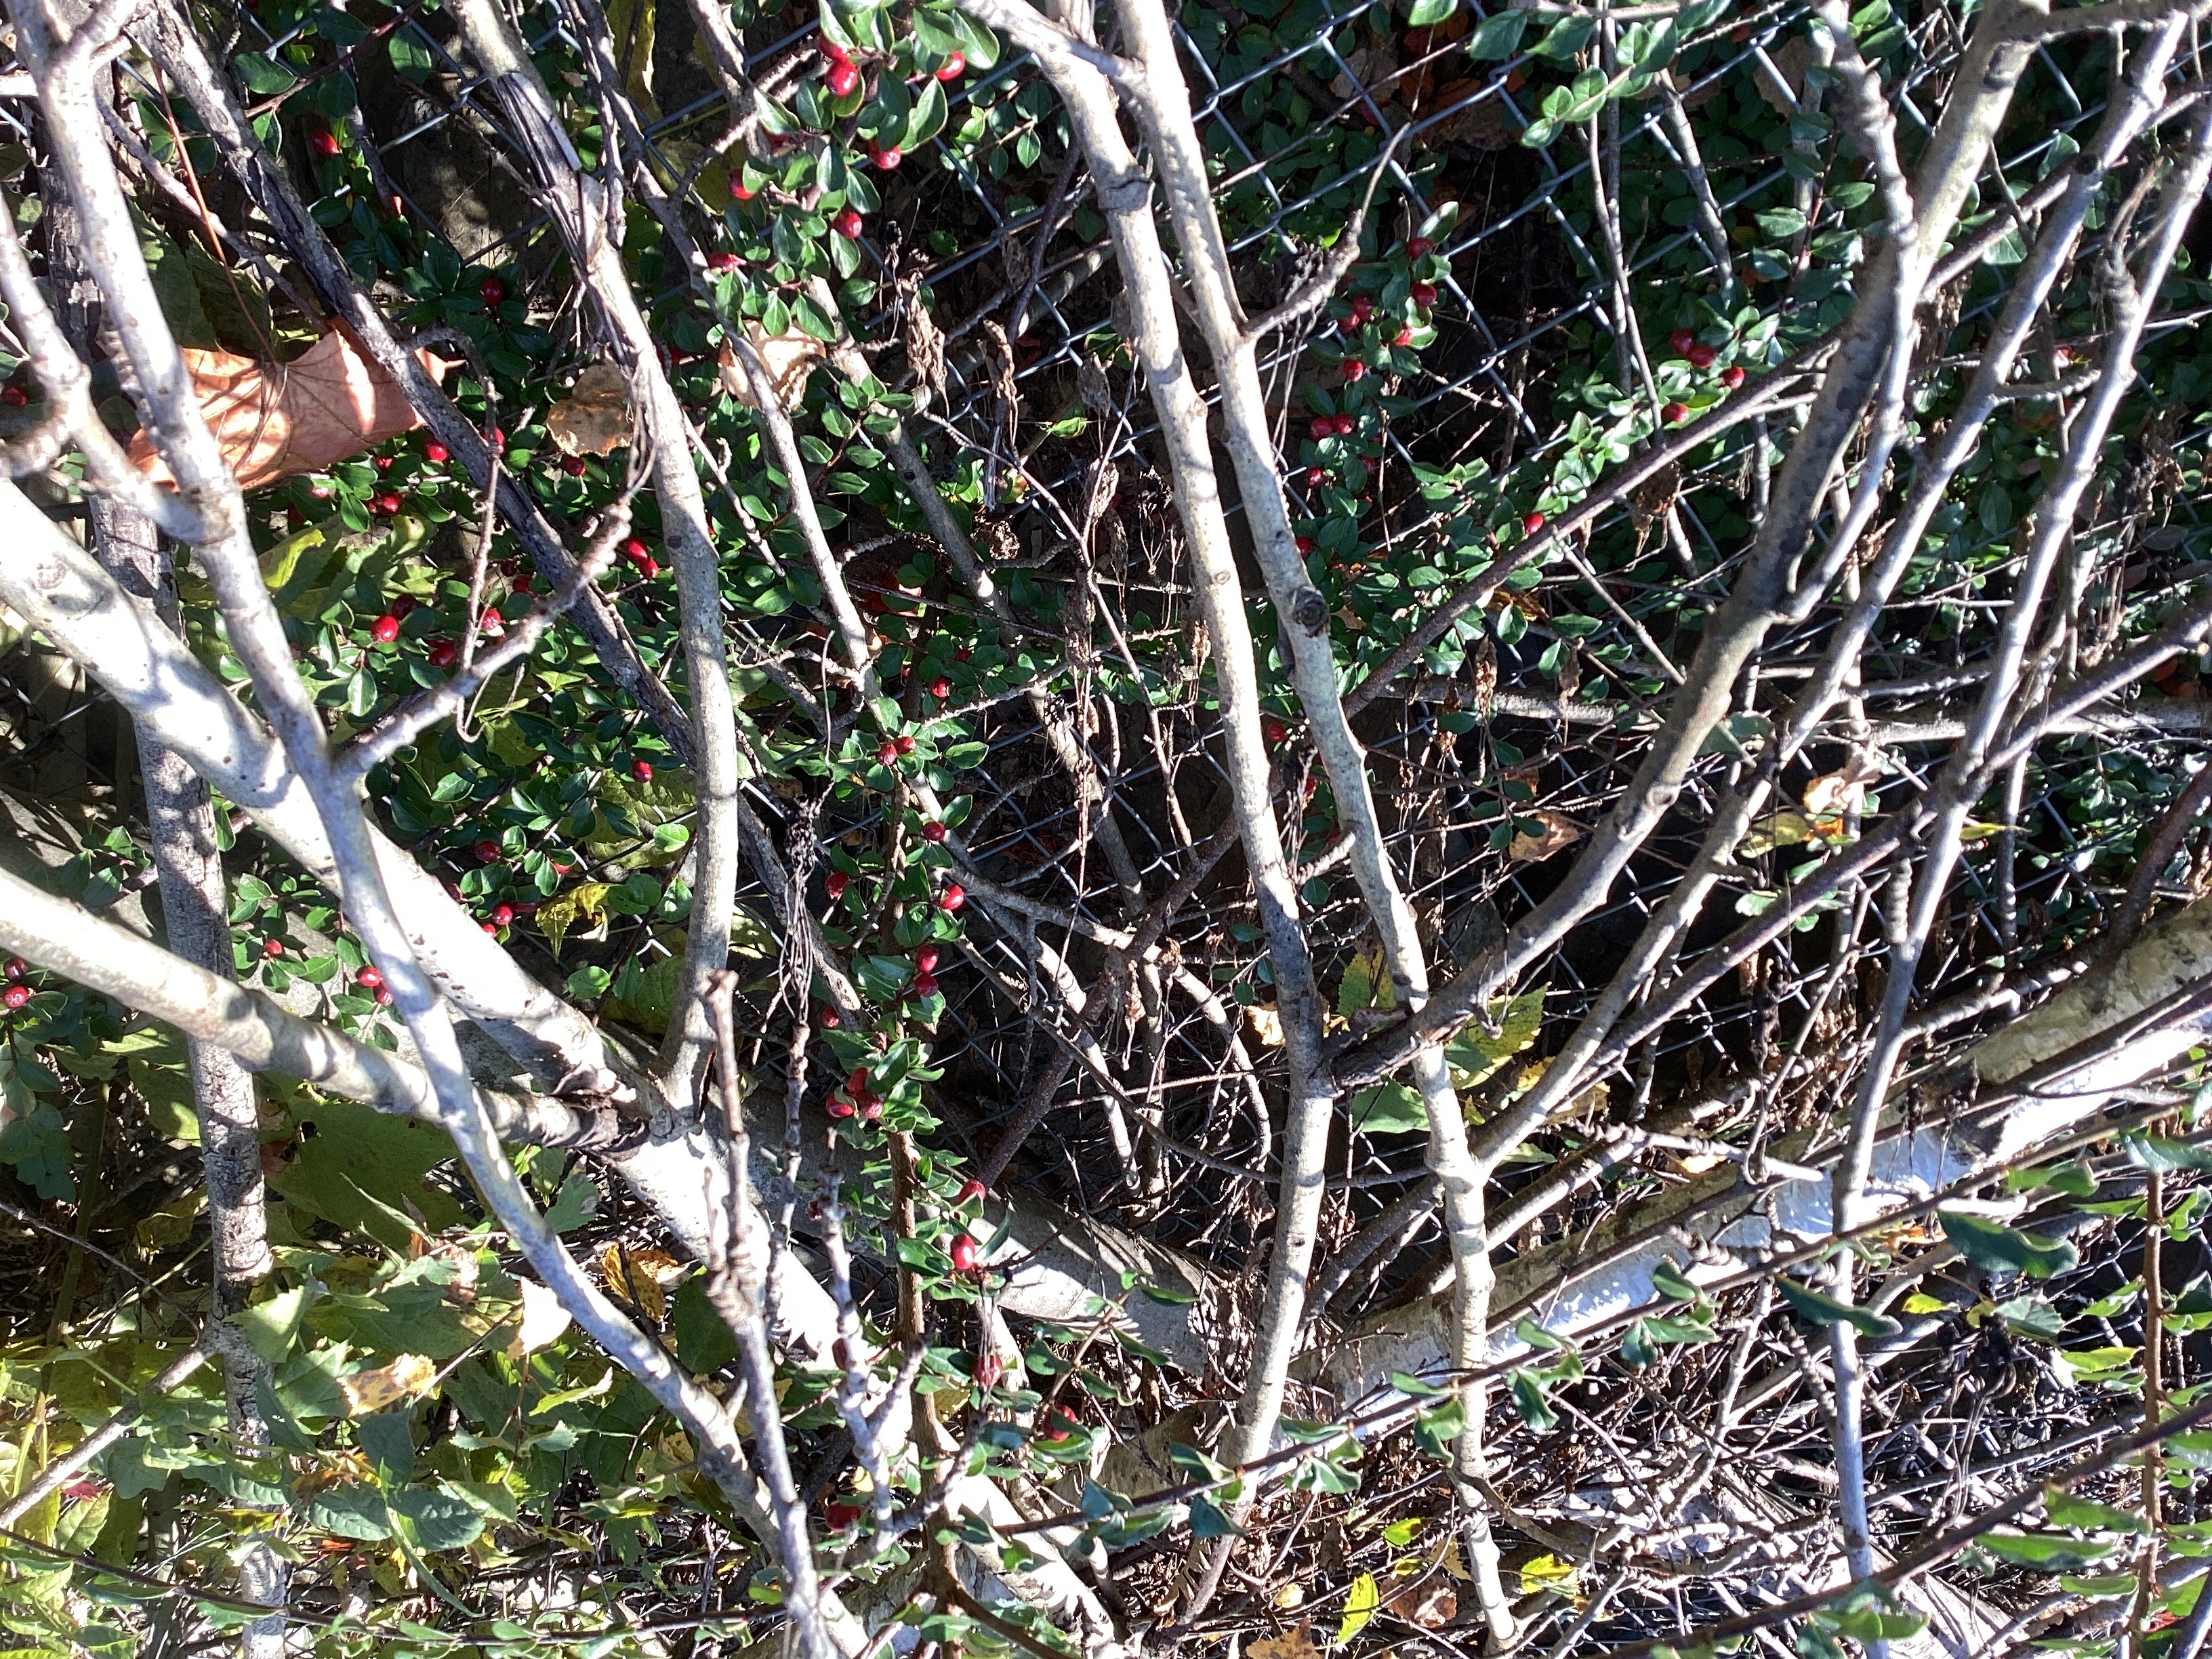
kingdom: Plantae
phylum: Tracheophyta
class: Magnoliopsida
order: Rosales
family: Rosaceae
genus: Cotoneaster
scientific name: Cotoneaster divaricatus
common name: sprikemispel
